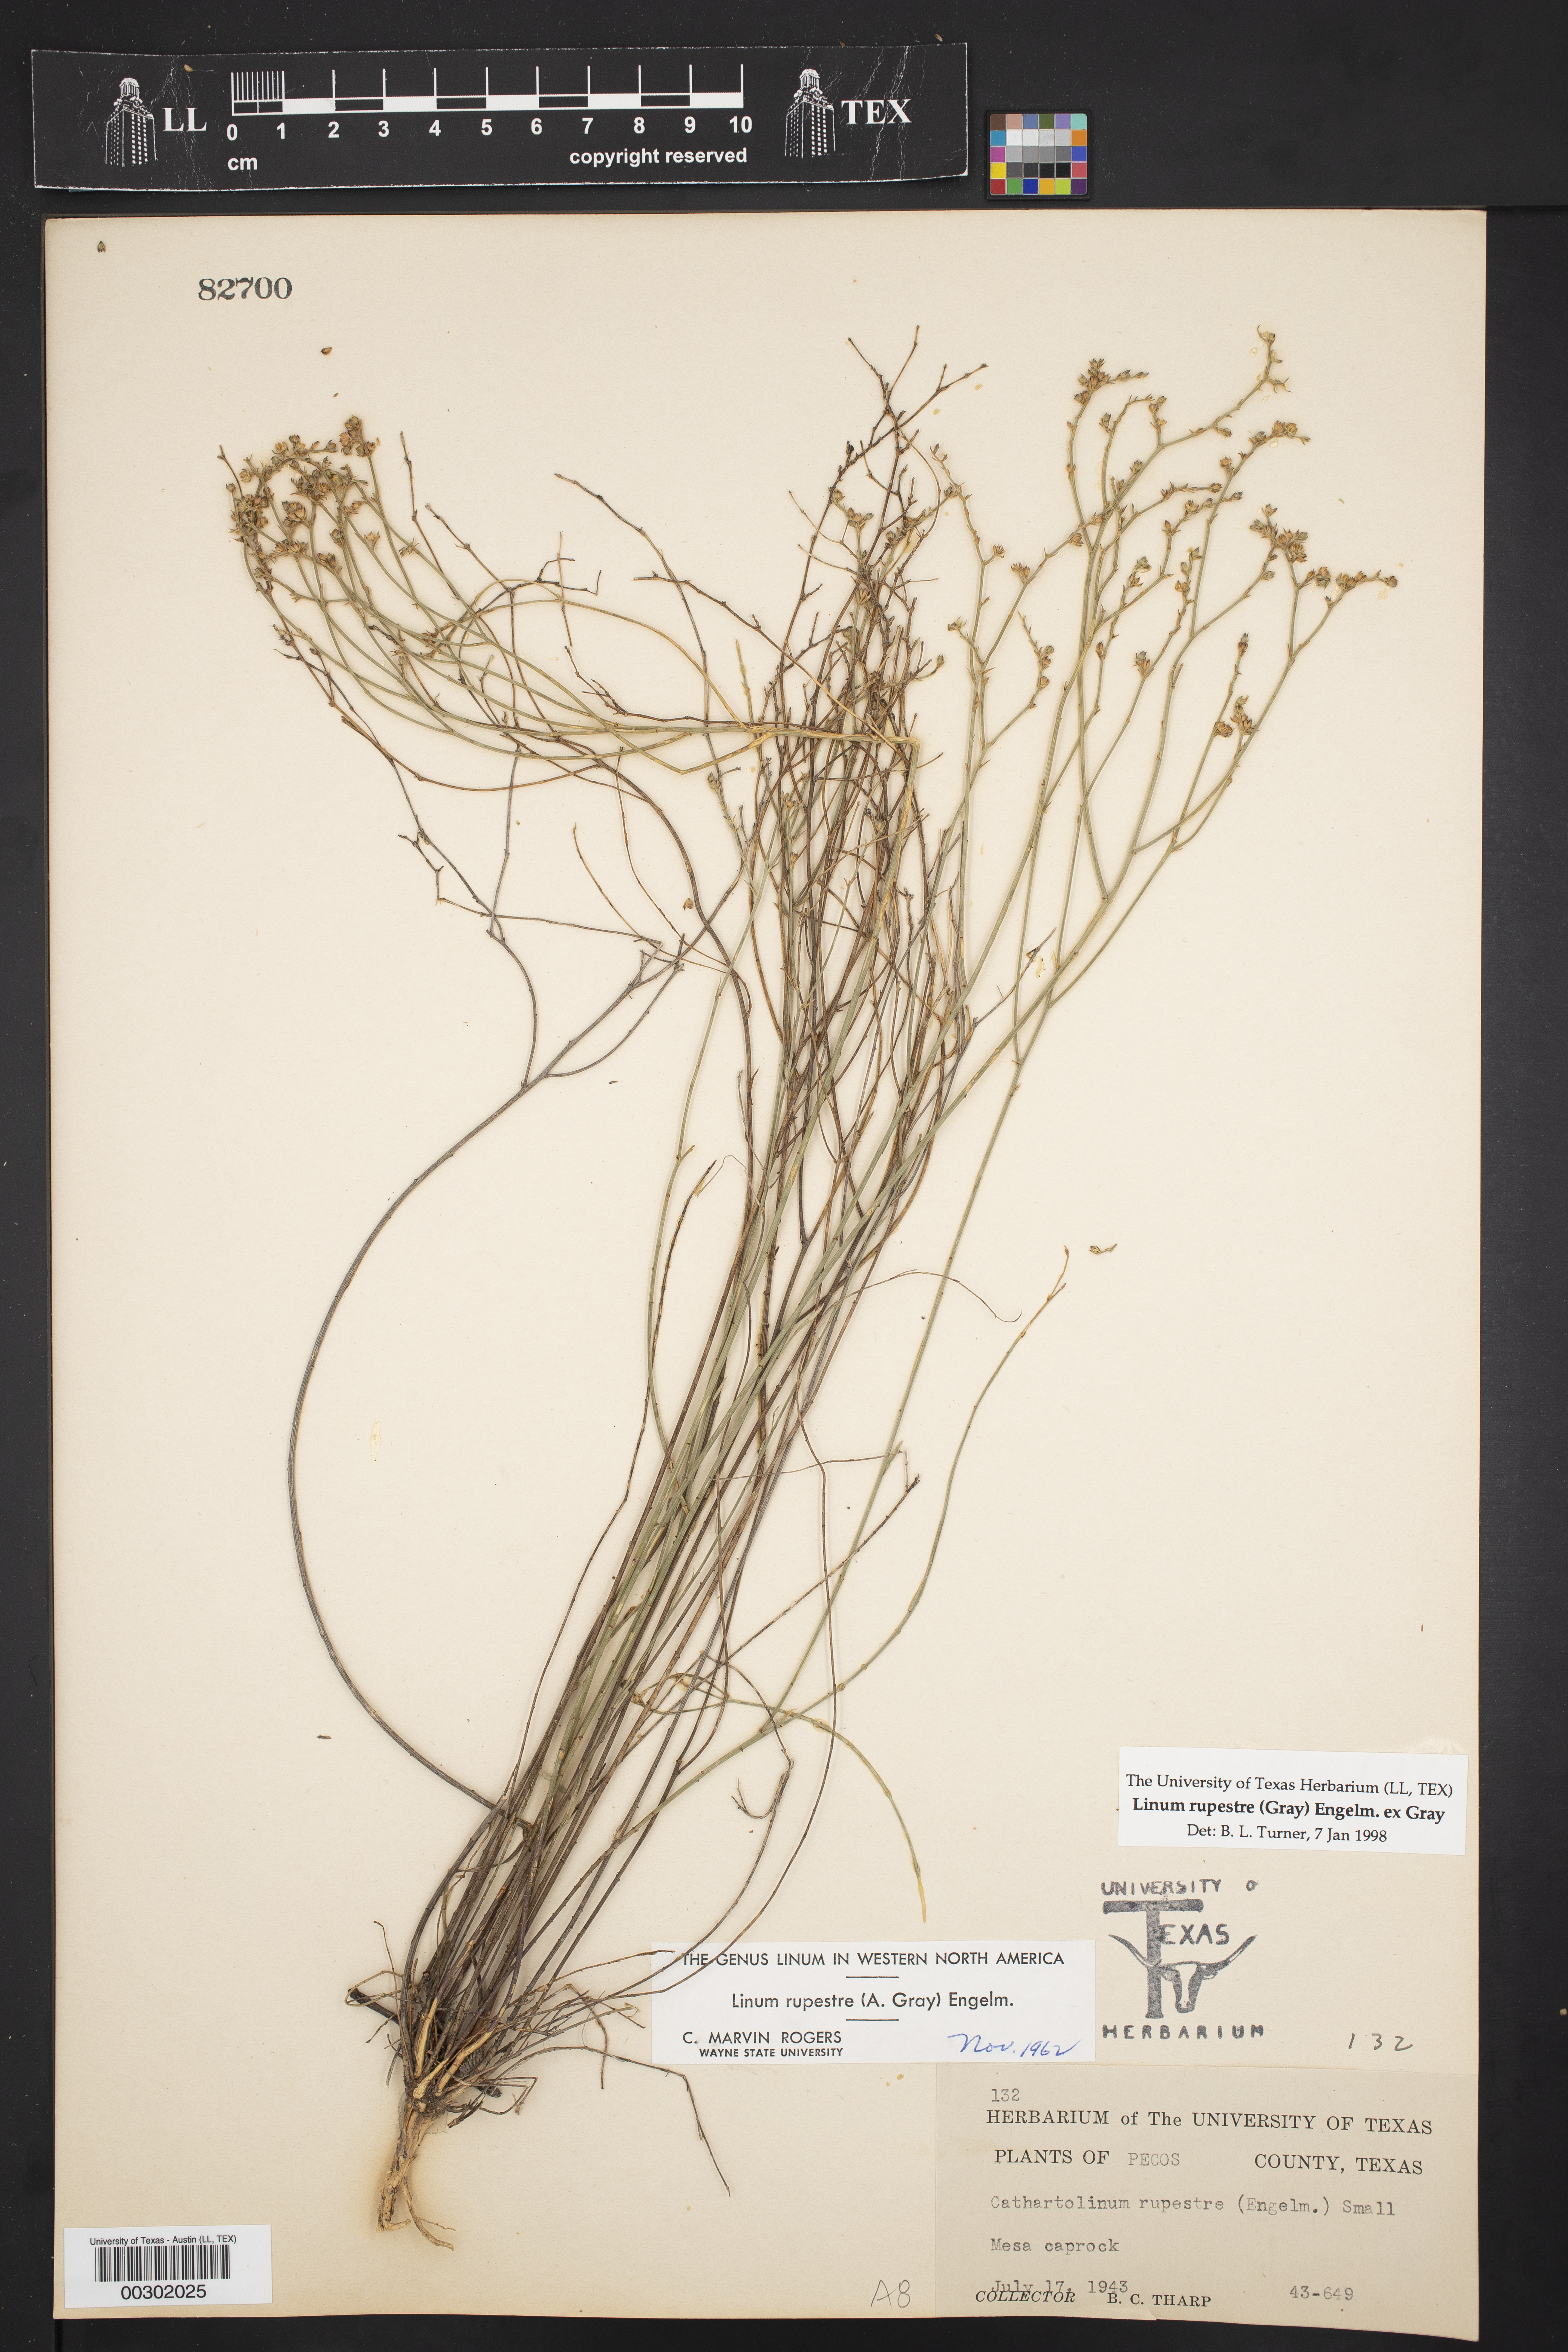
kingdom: Plantae
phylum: Tracheophyta
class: Magnoliopsida
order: Malpighiales
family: Linaceae
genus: Linum
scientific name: Linum rupestre
